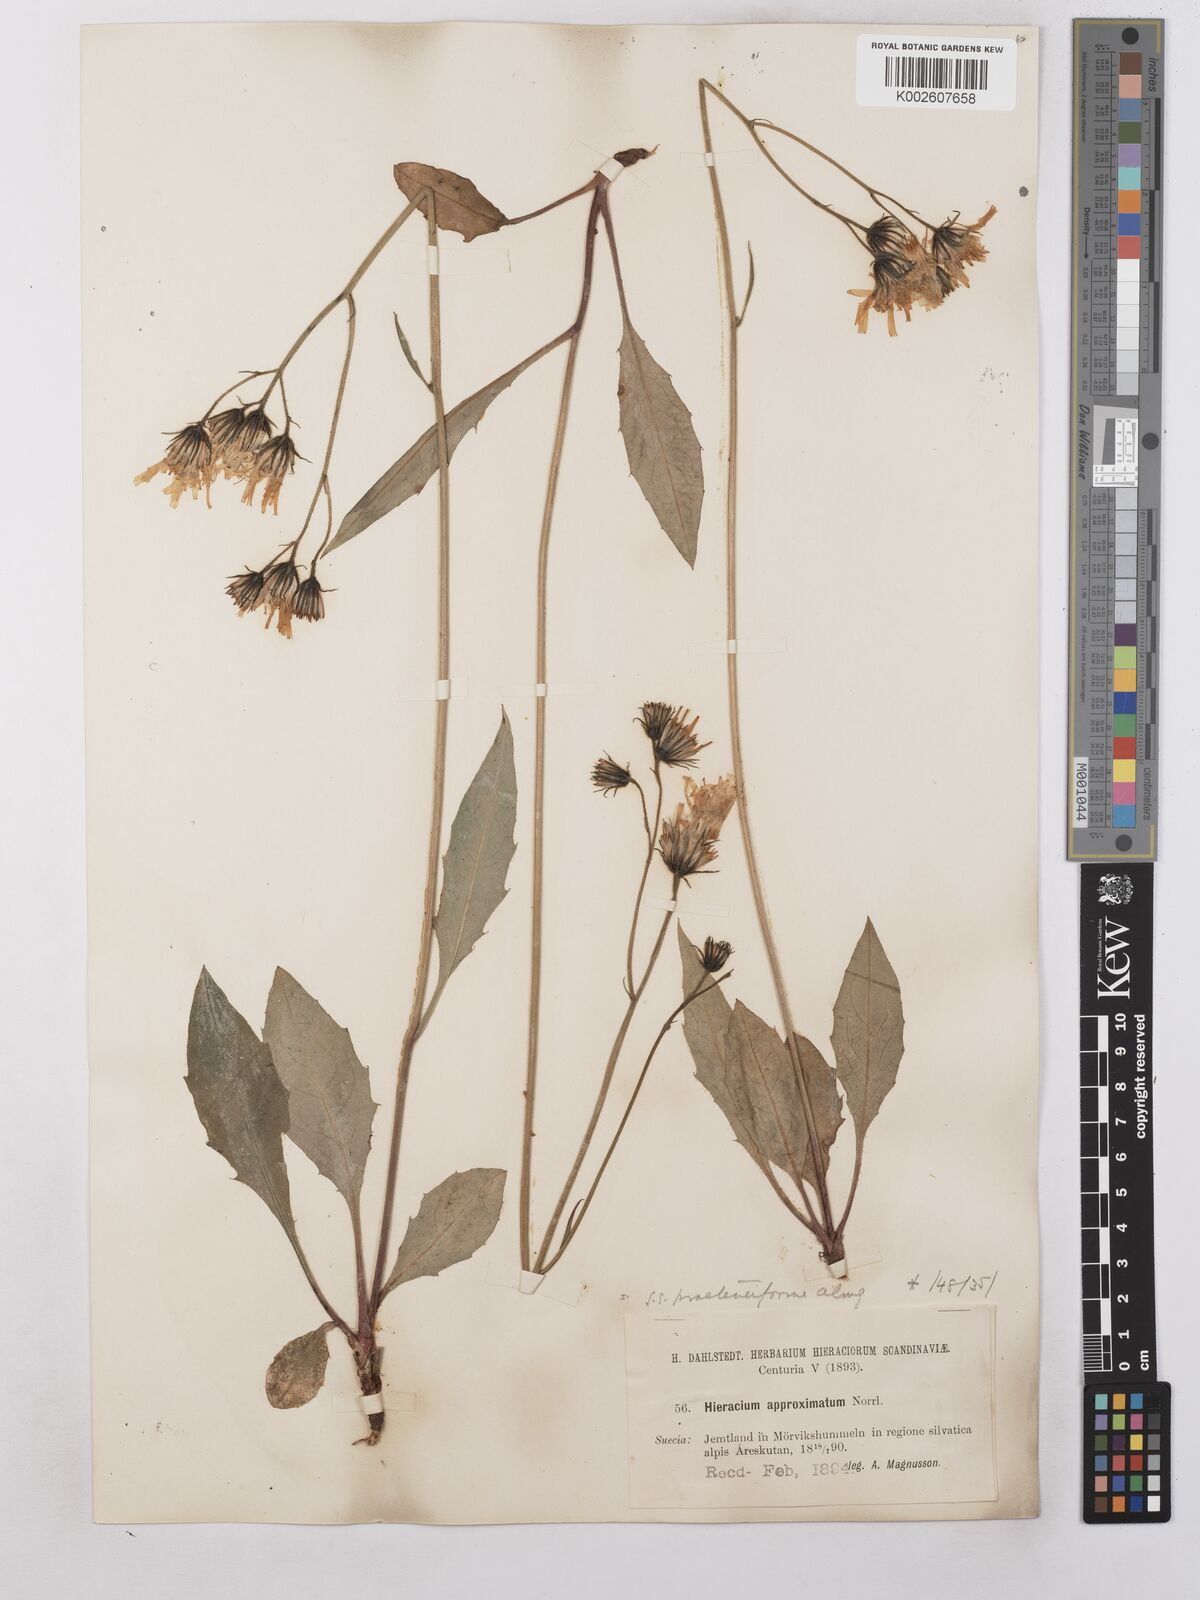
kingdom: Plantae
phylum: Tracheophyta
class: Magnoliopsida
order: Asterales
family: Asteraceae
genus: Hieracium
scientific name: Hieracium subramosum
